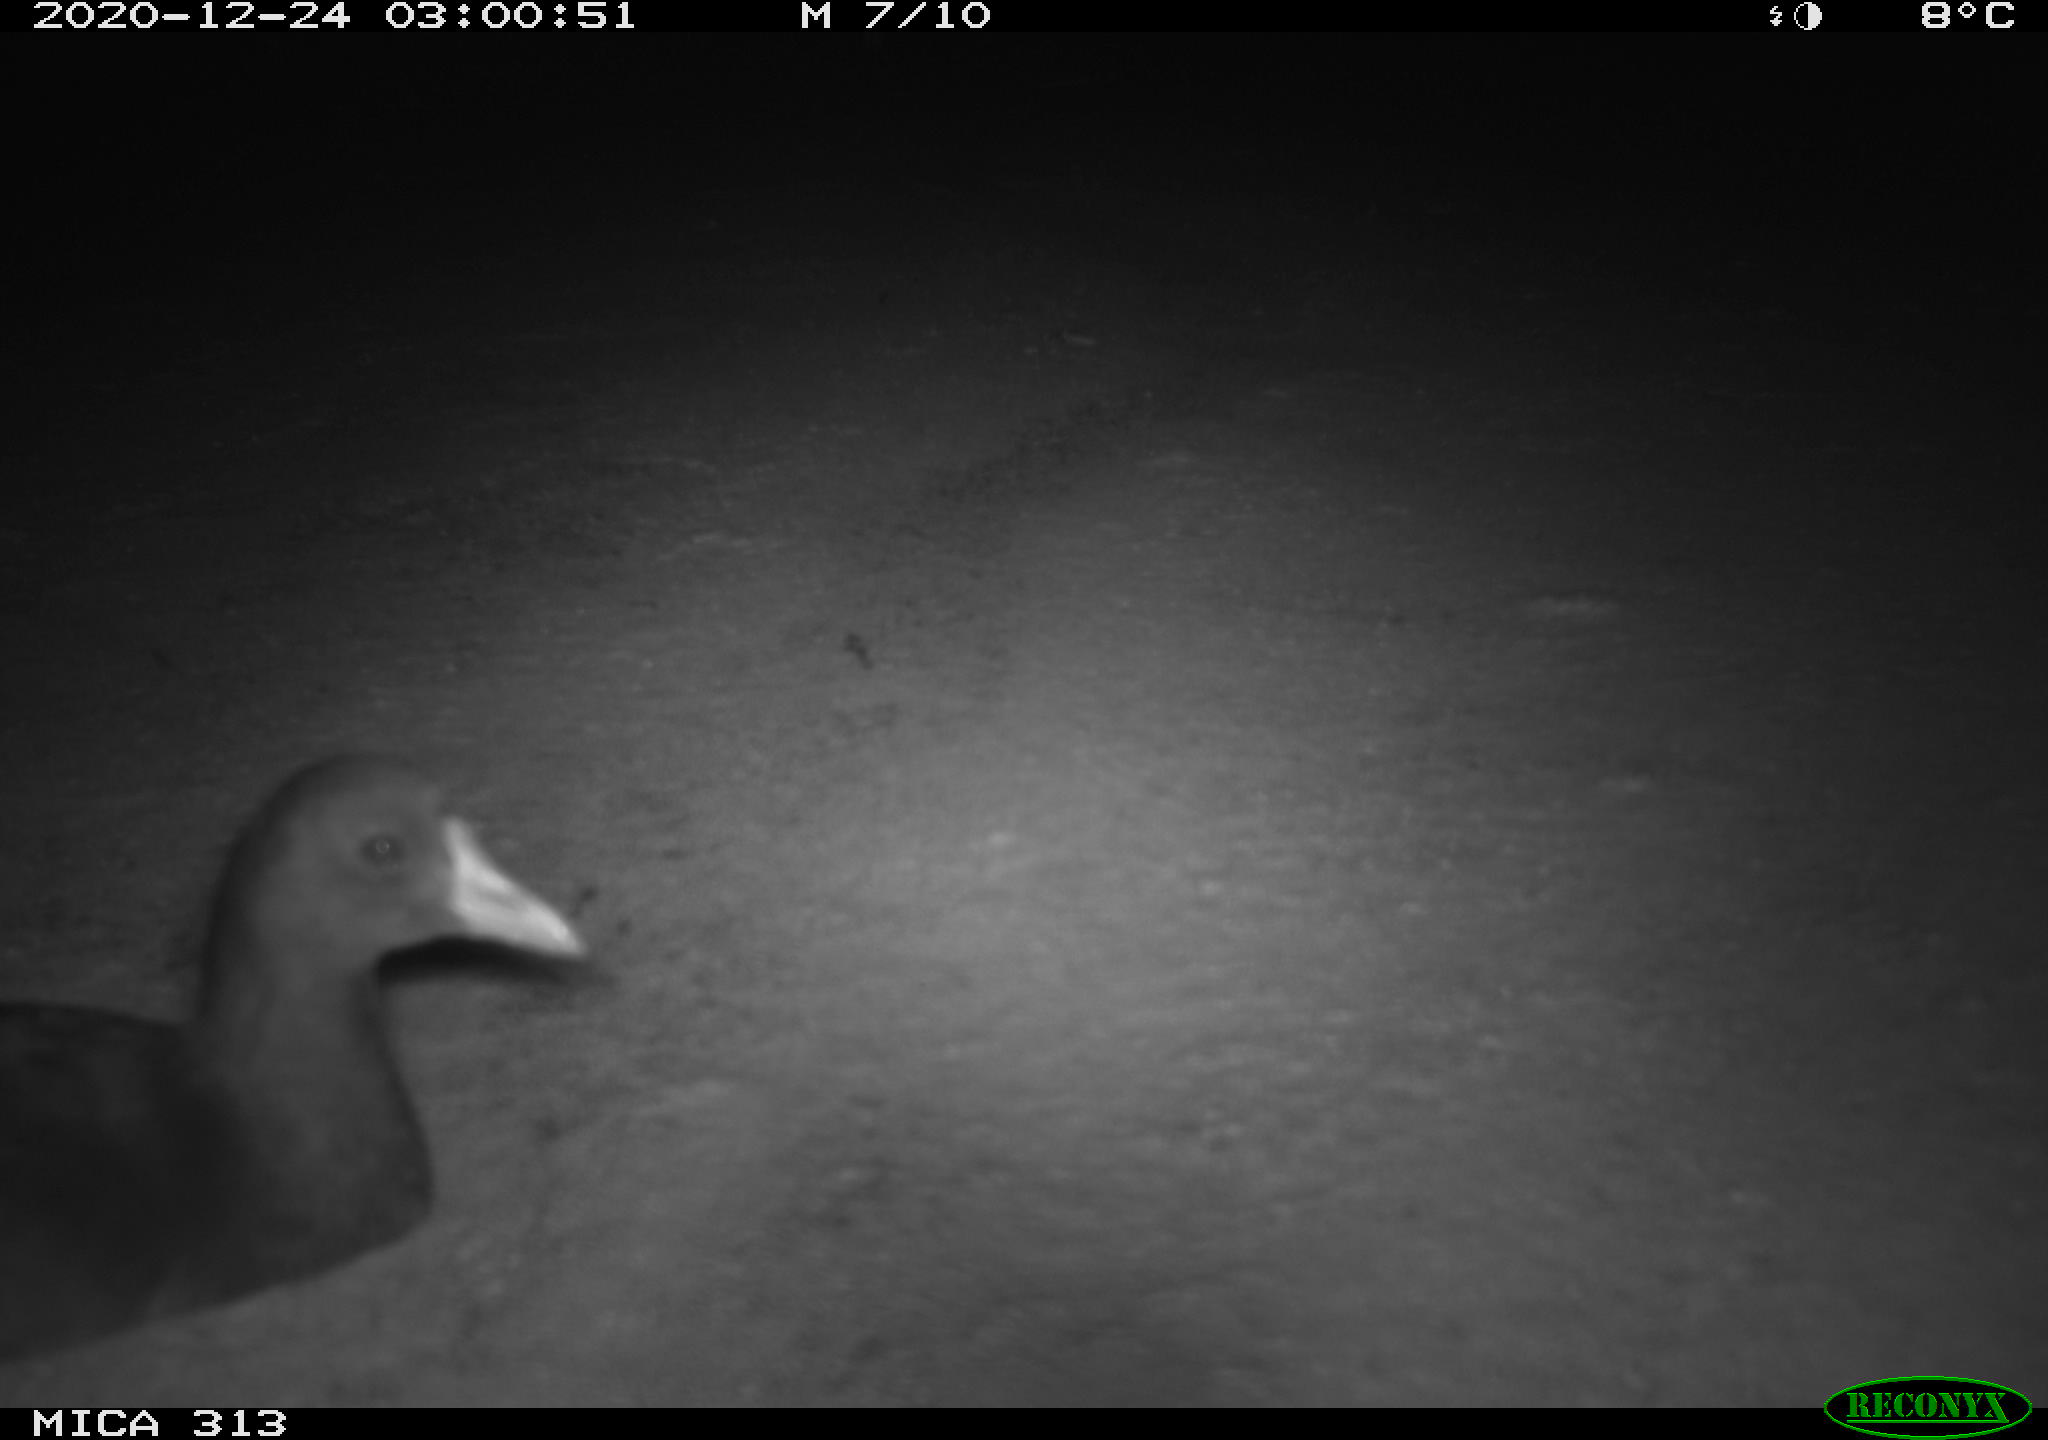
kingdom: Animalia
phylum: Chordata
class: Aves
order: Gruiformes
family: Rallidae
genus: Gallinula
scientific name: Gallinula chloropus
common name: Common moorhen
